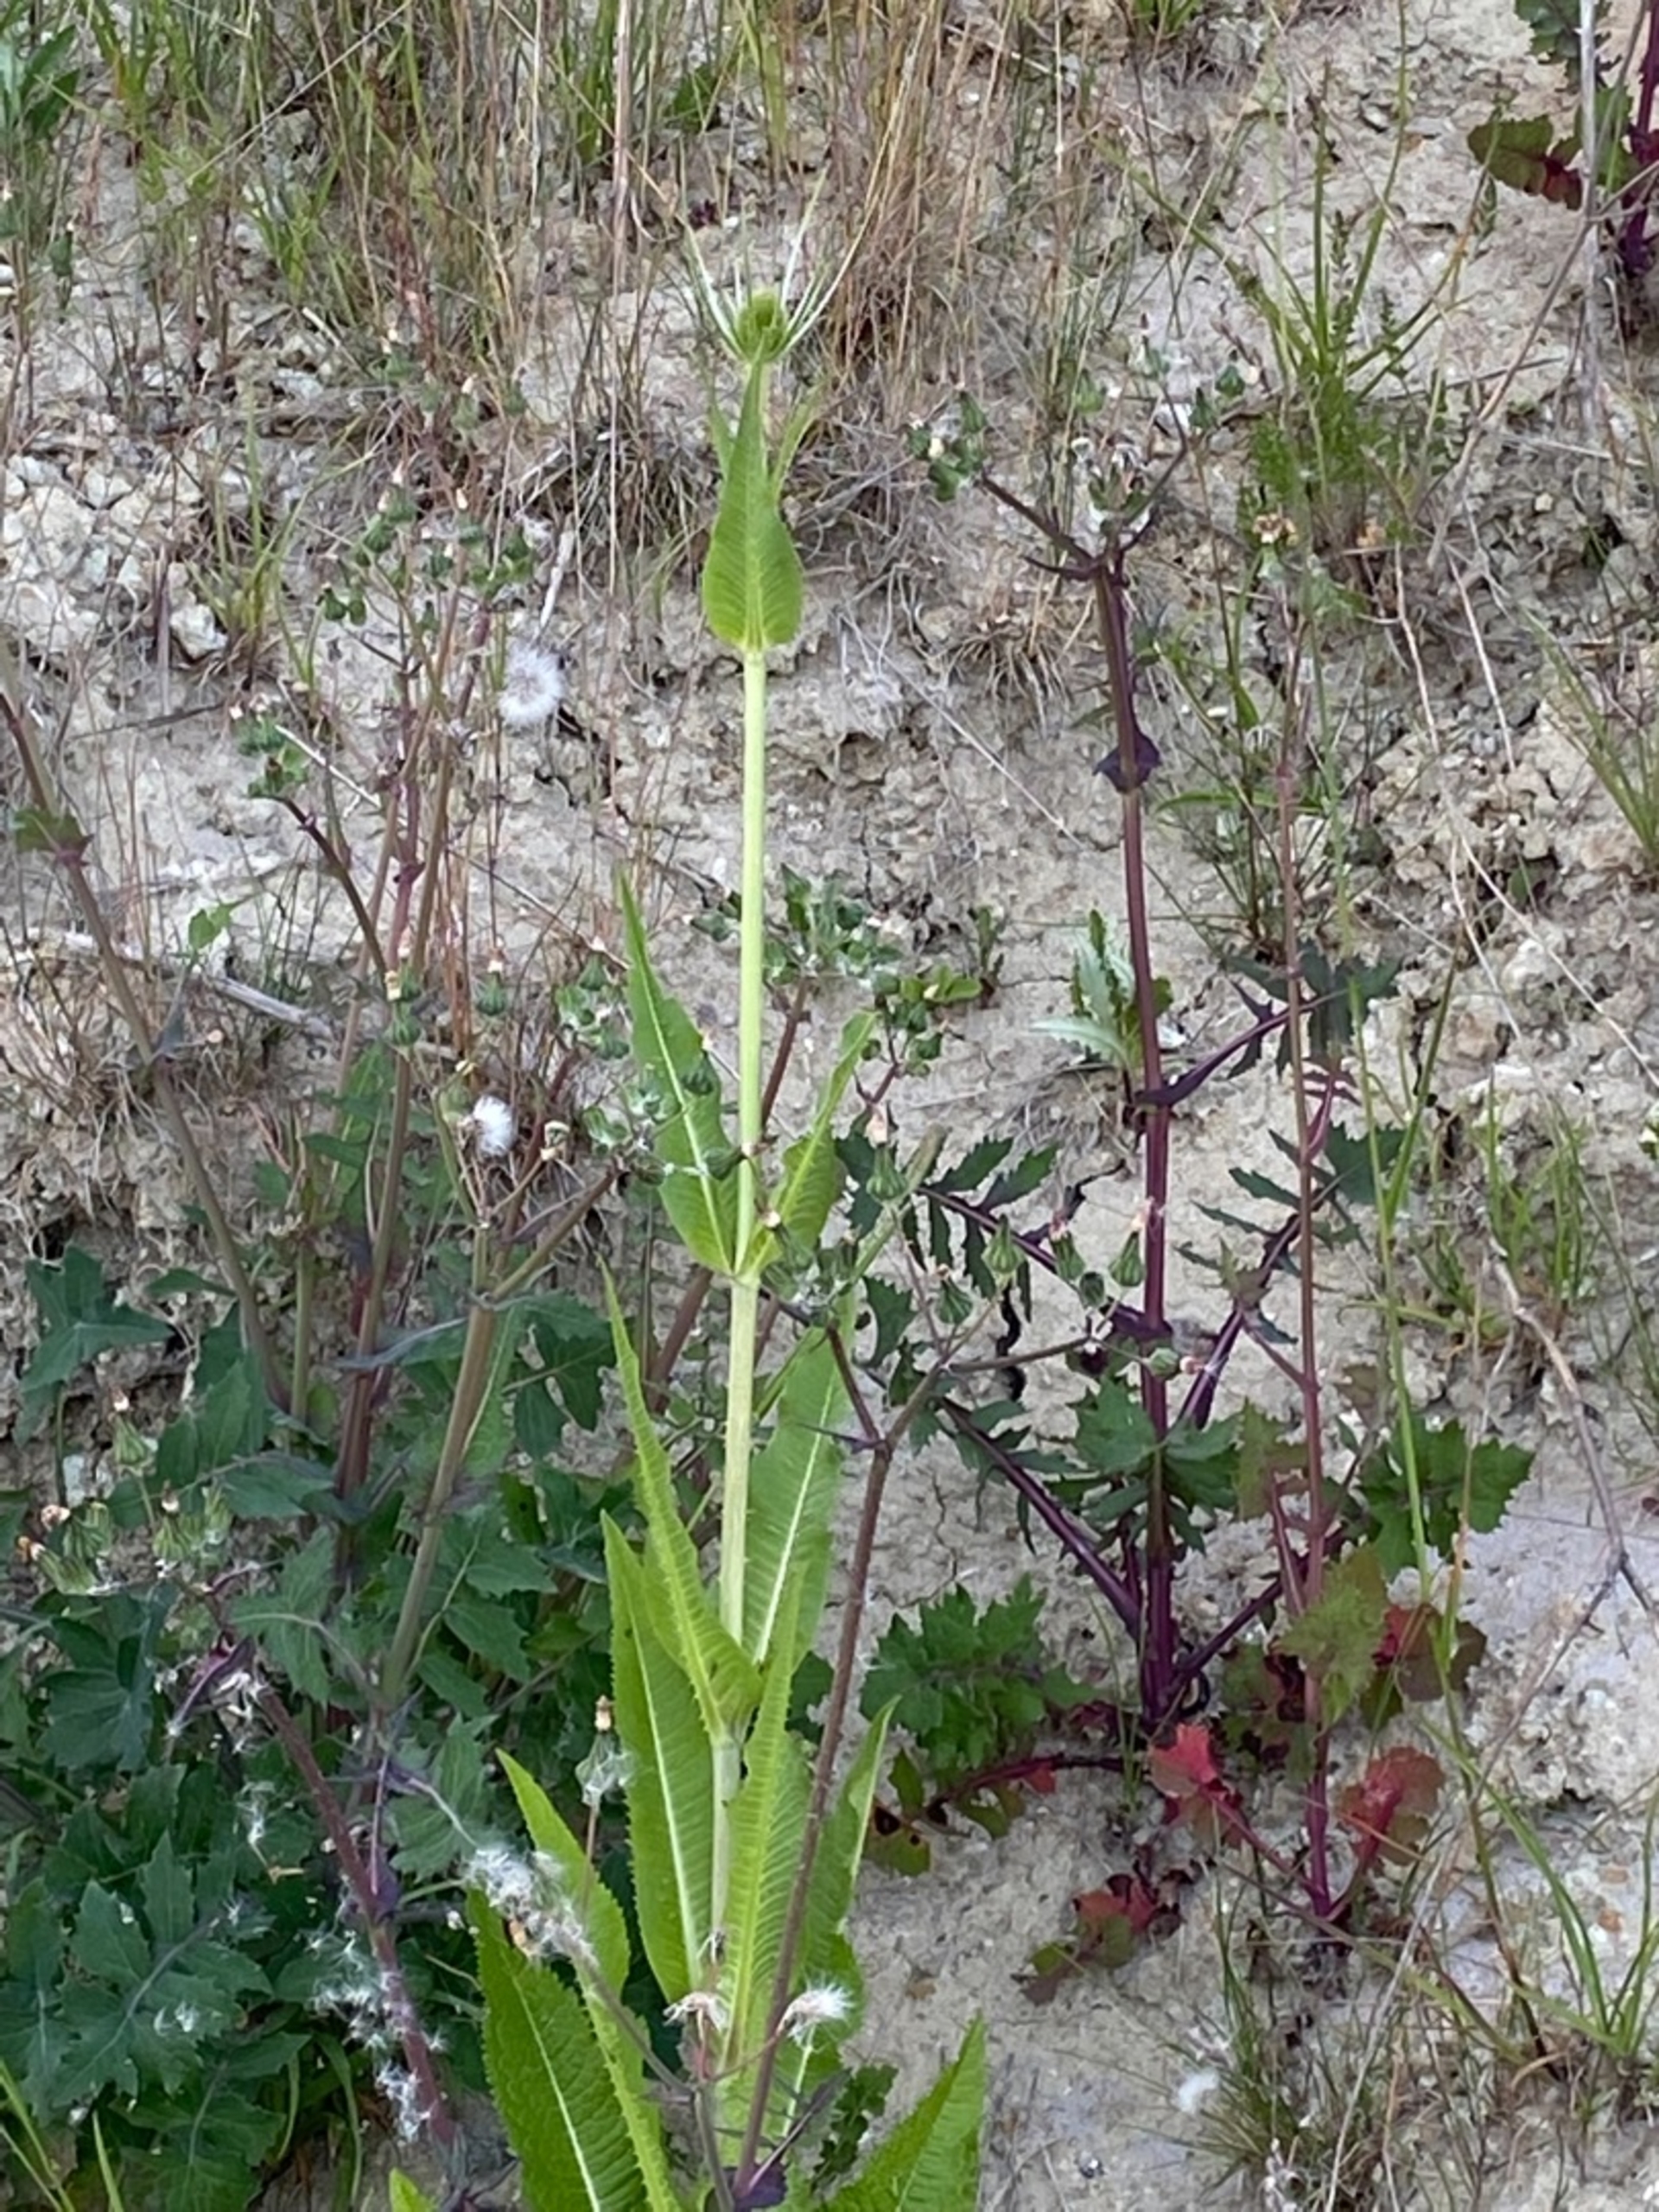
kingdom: Plantae
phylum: Tracheophyta
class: Magnoliopsida
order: Dipsacales
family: Caprifoliaceae
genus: Dipsacus
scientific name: Dipsacus fullonum
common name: Gærde-kartebolle
